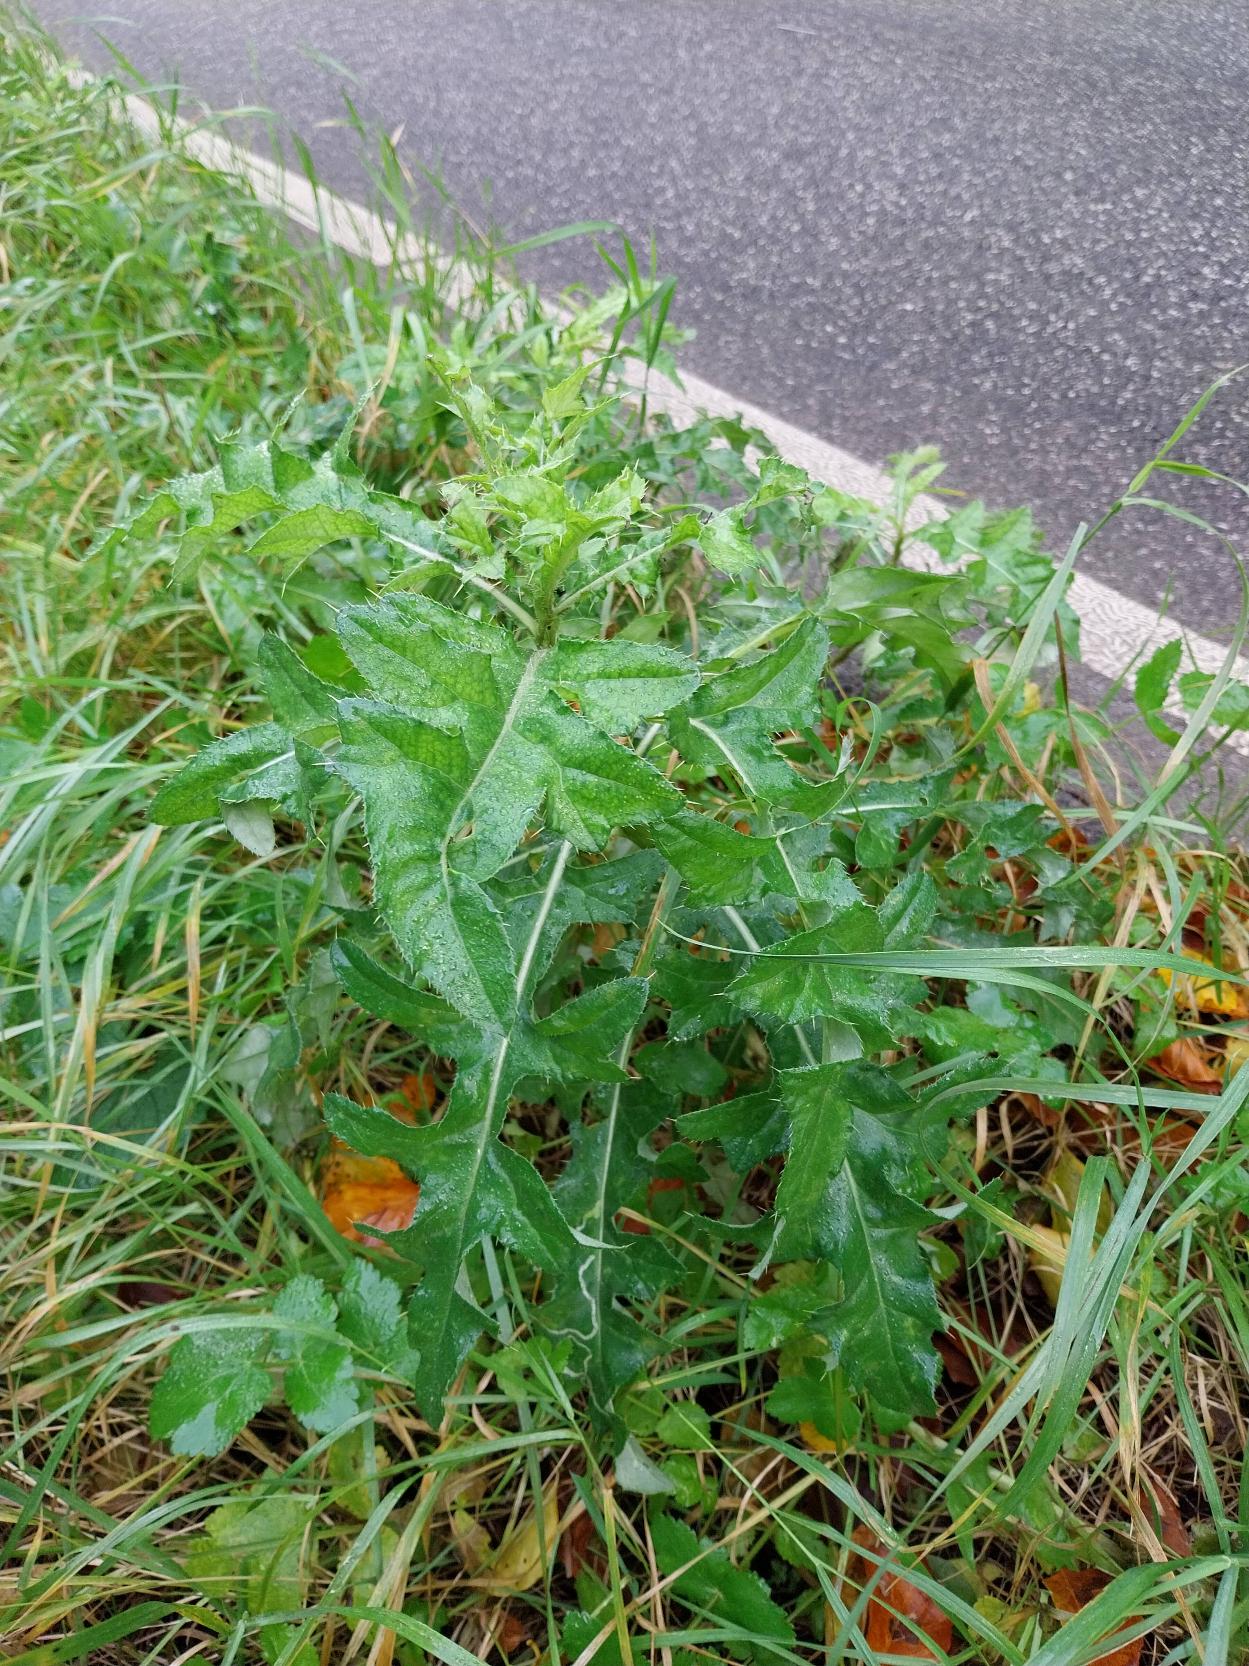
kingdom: Plantae
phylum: Tracheophyta
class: Magnoliopsida
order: Asterales
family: Asteraceae
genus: Cirsium
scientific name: Cirsium arvense
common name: Ager-tidsel
